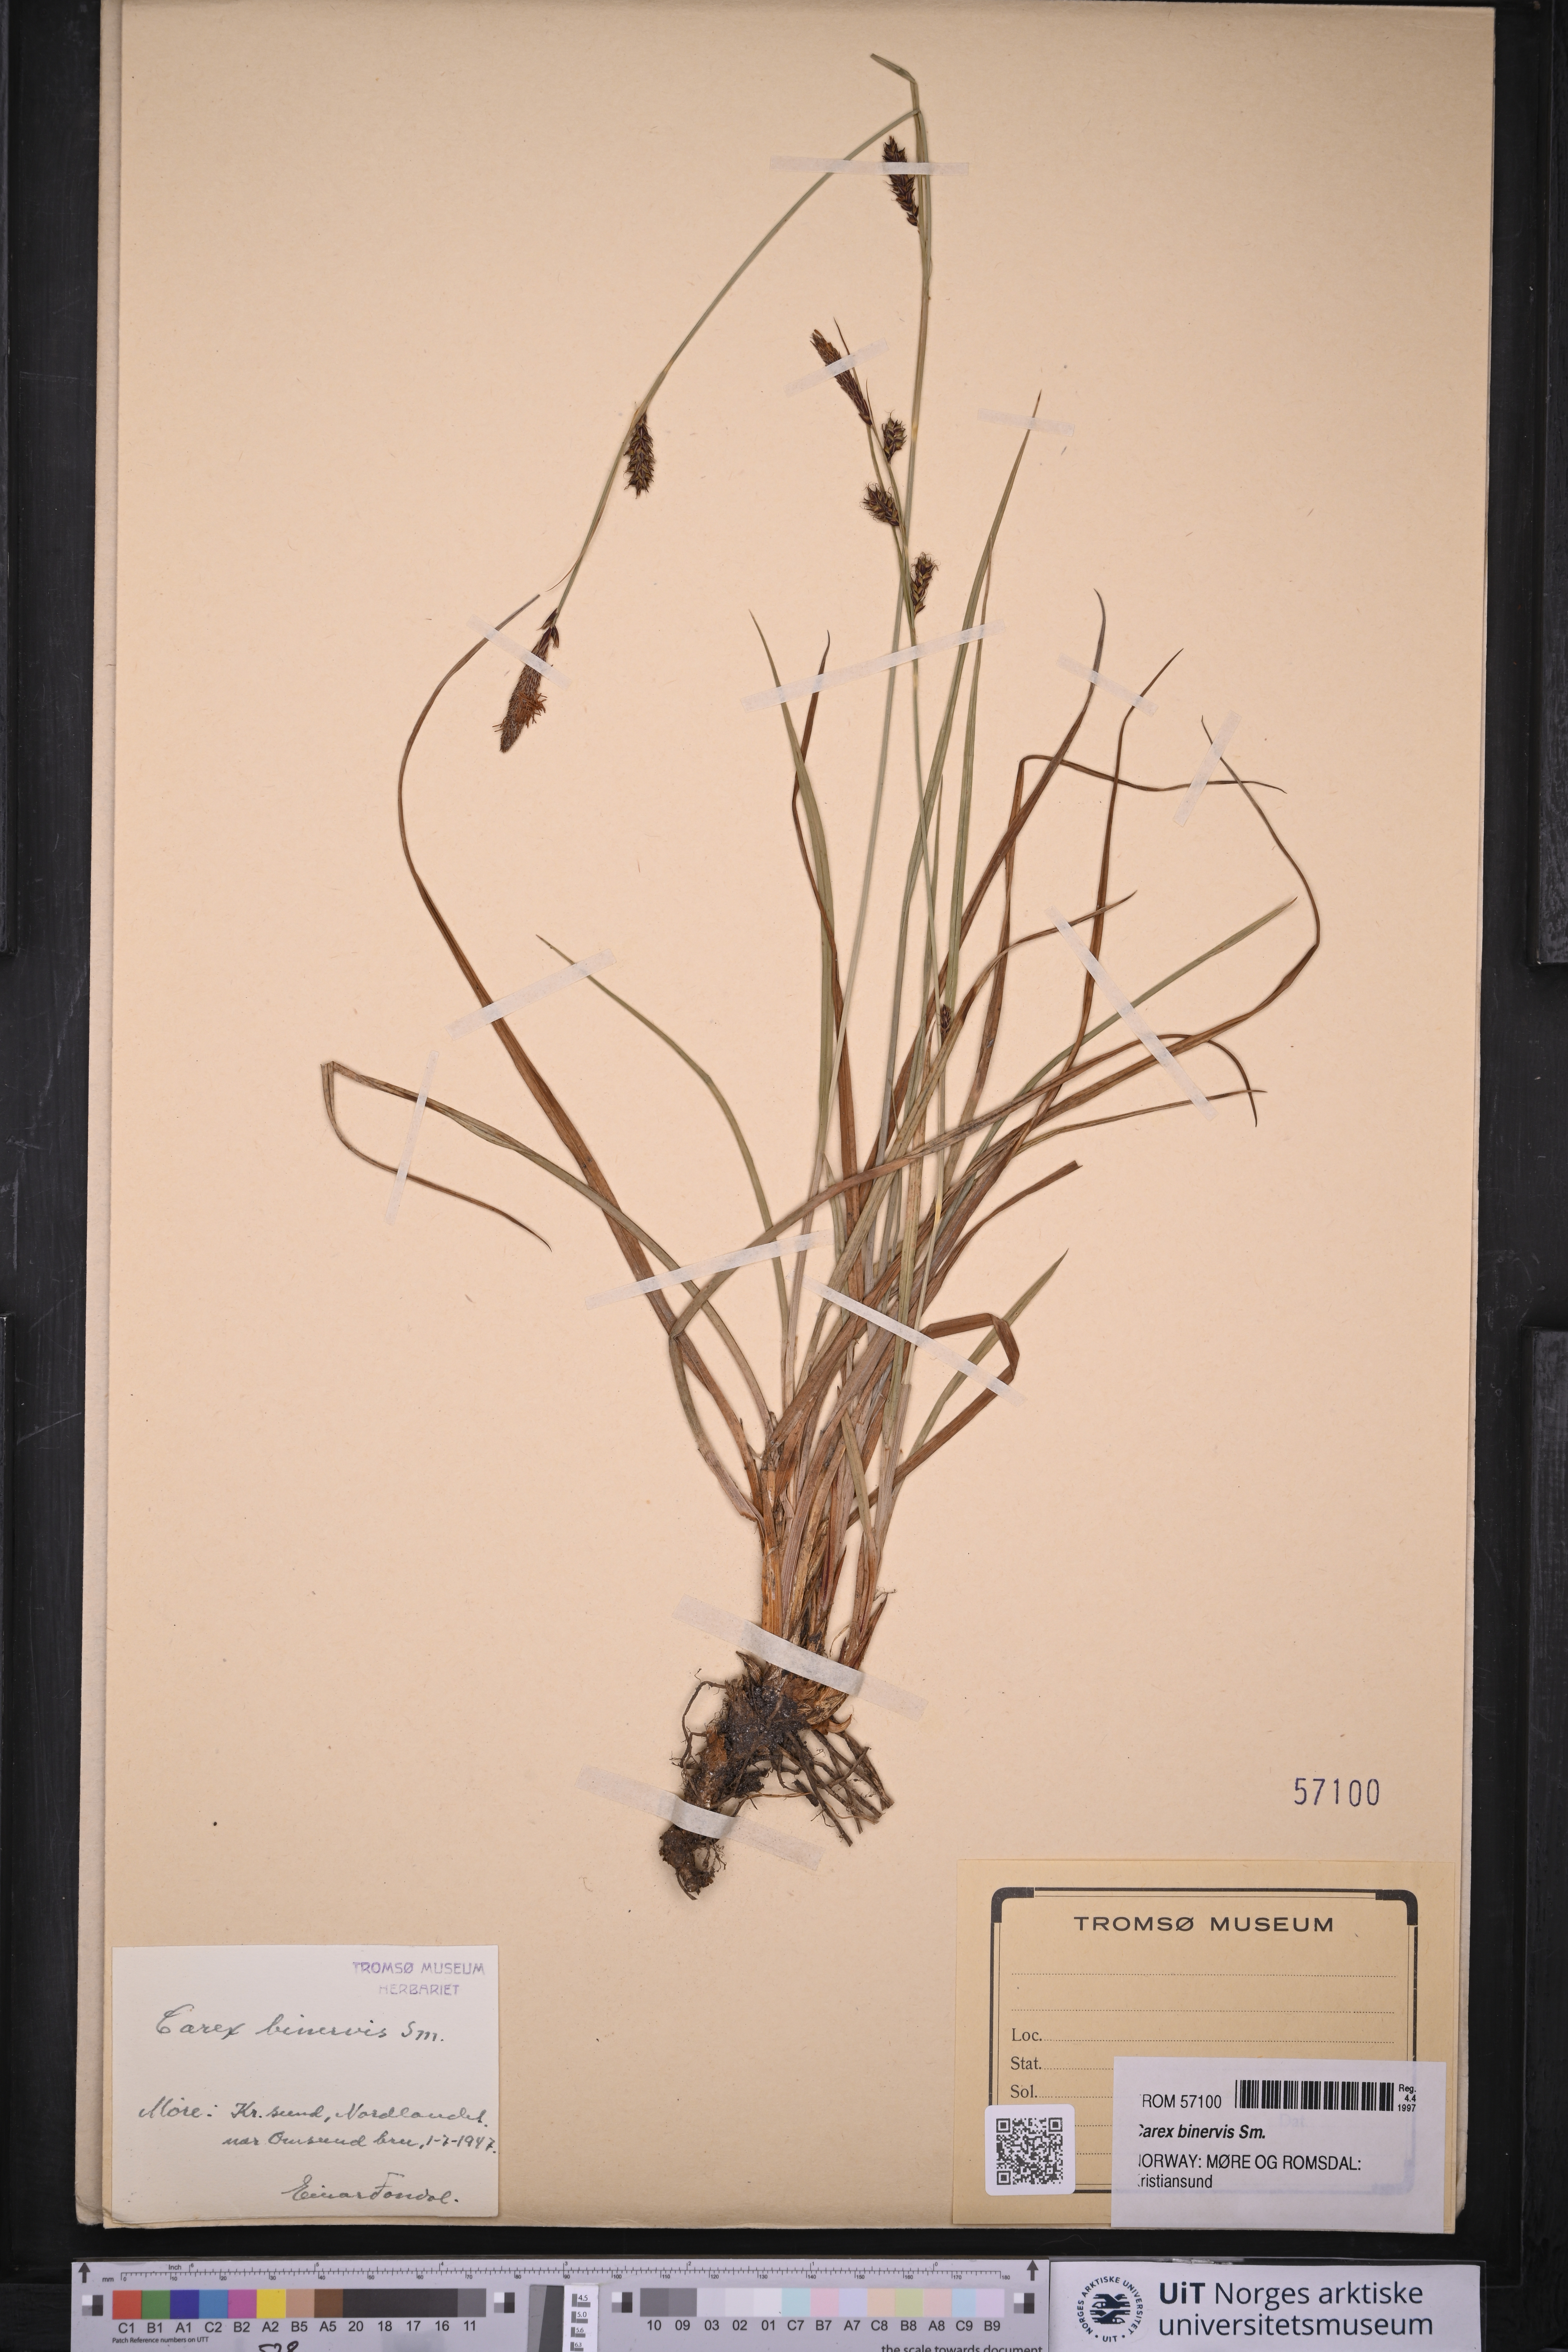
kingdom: Plantae
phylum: Tracheophyta
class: Liliopsida
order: Poales
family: Cyperaceae
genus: Carex
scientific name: Carex binervis
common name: Green-ribbed sedge
